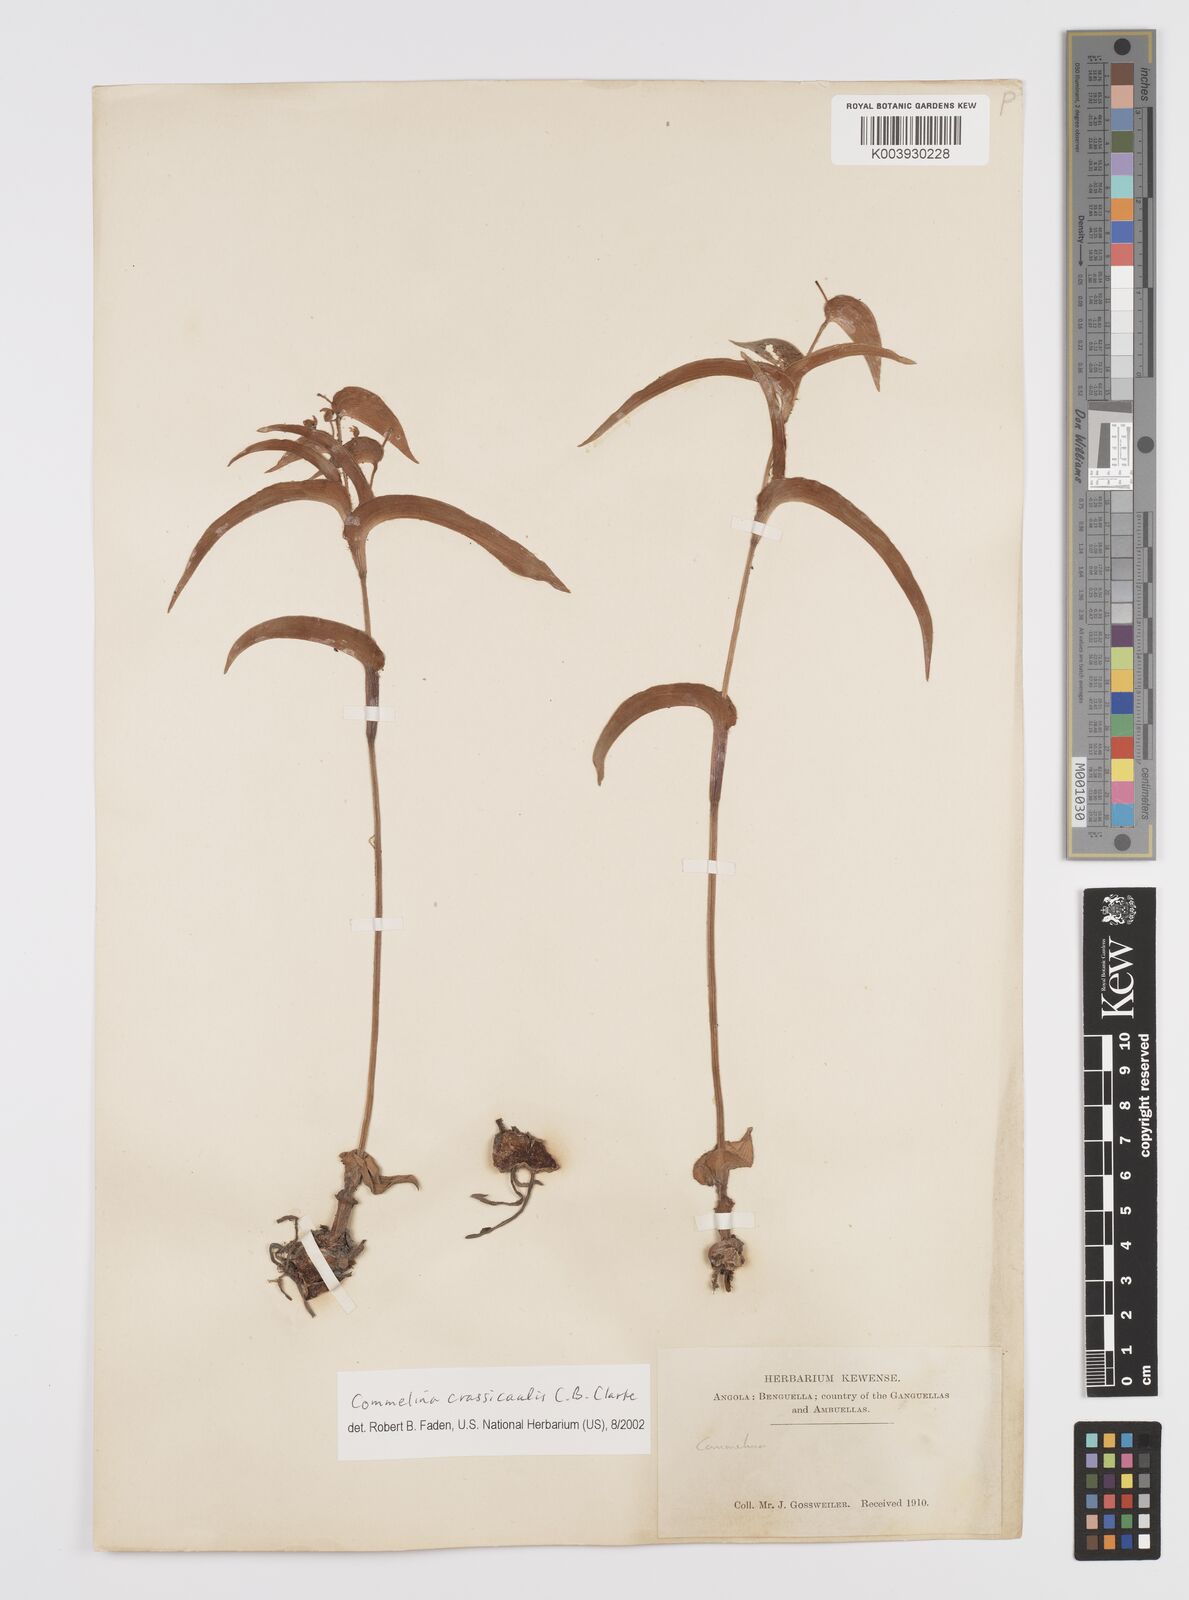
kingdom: Plantae
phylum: Tracheophyta
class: Liliopsida
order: Commelinales
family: Commelinaceae
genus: Commelina
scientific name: Commelina crassicaulis
